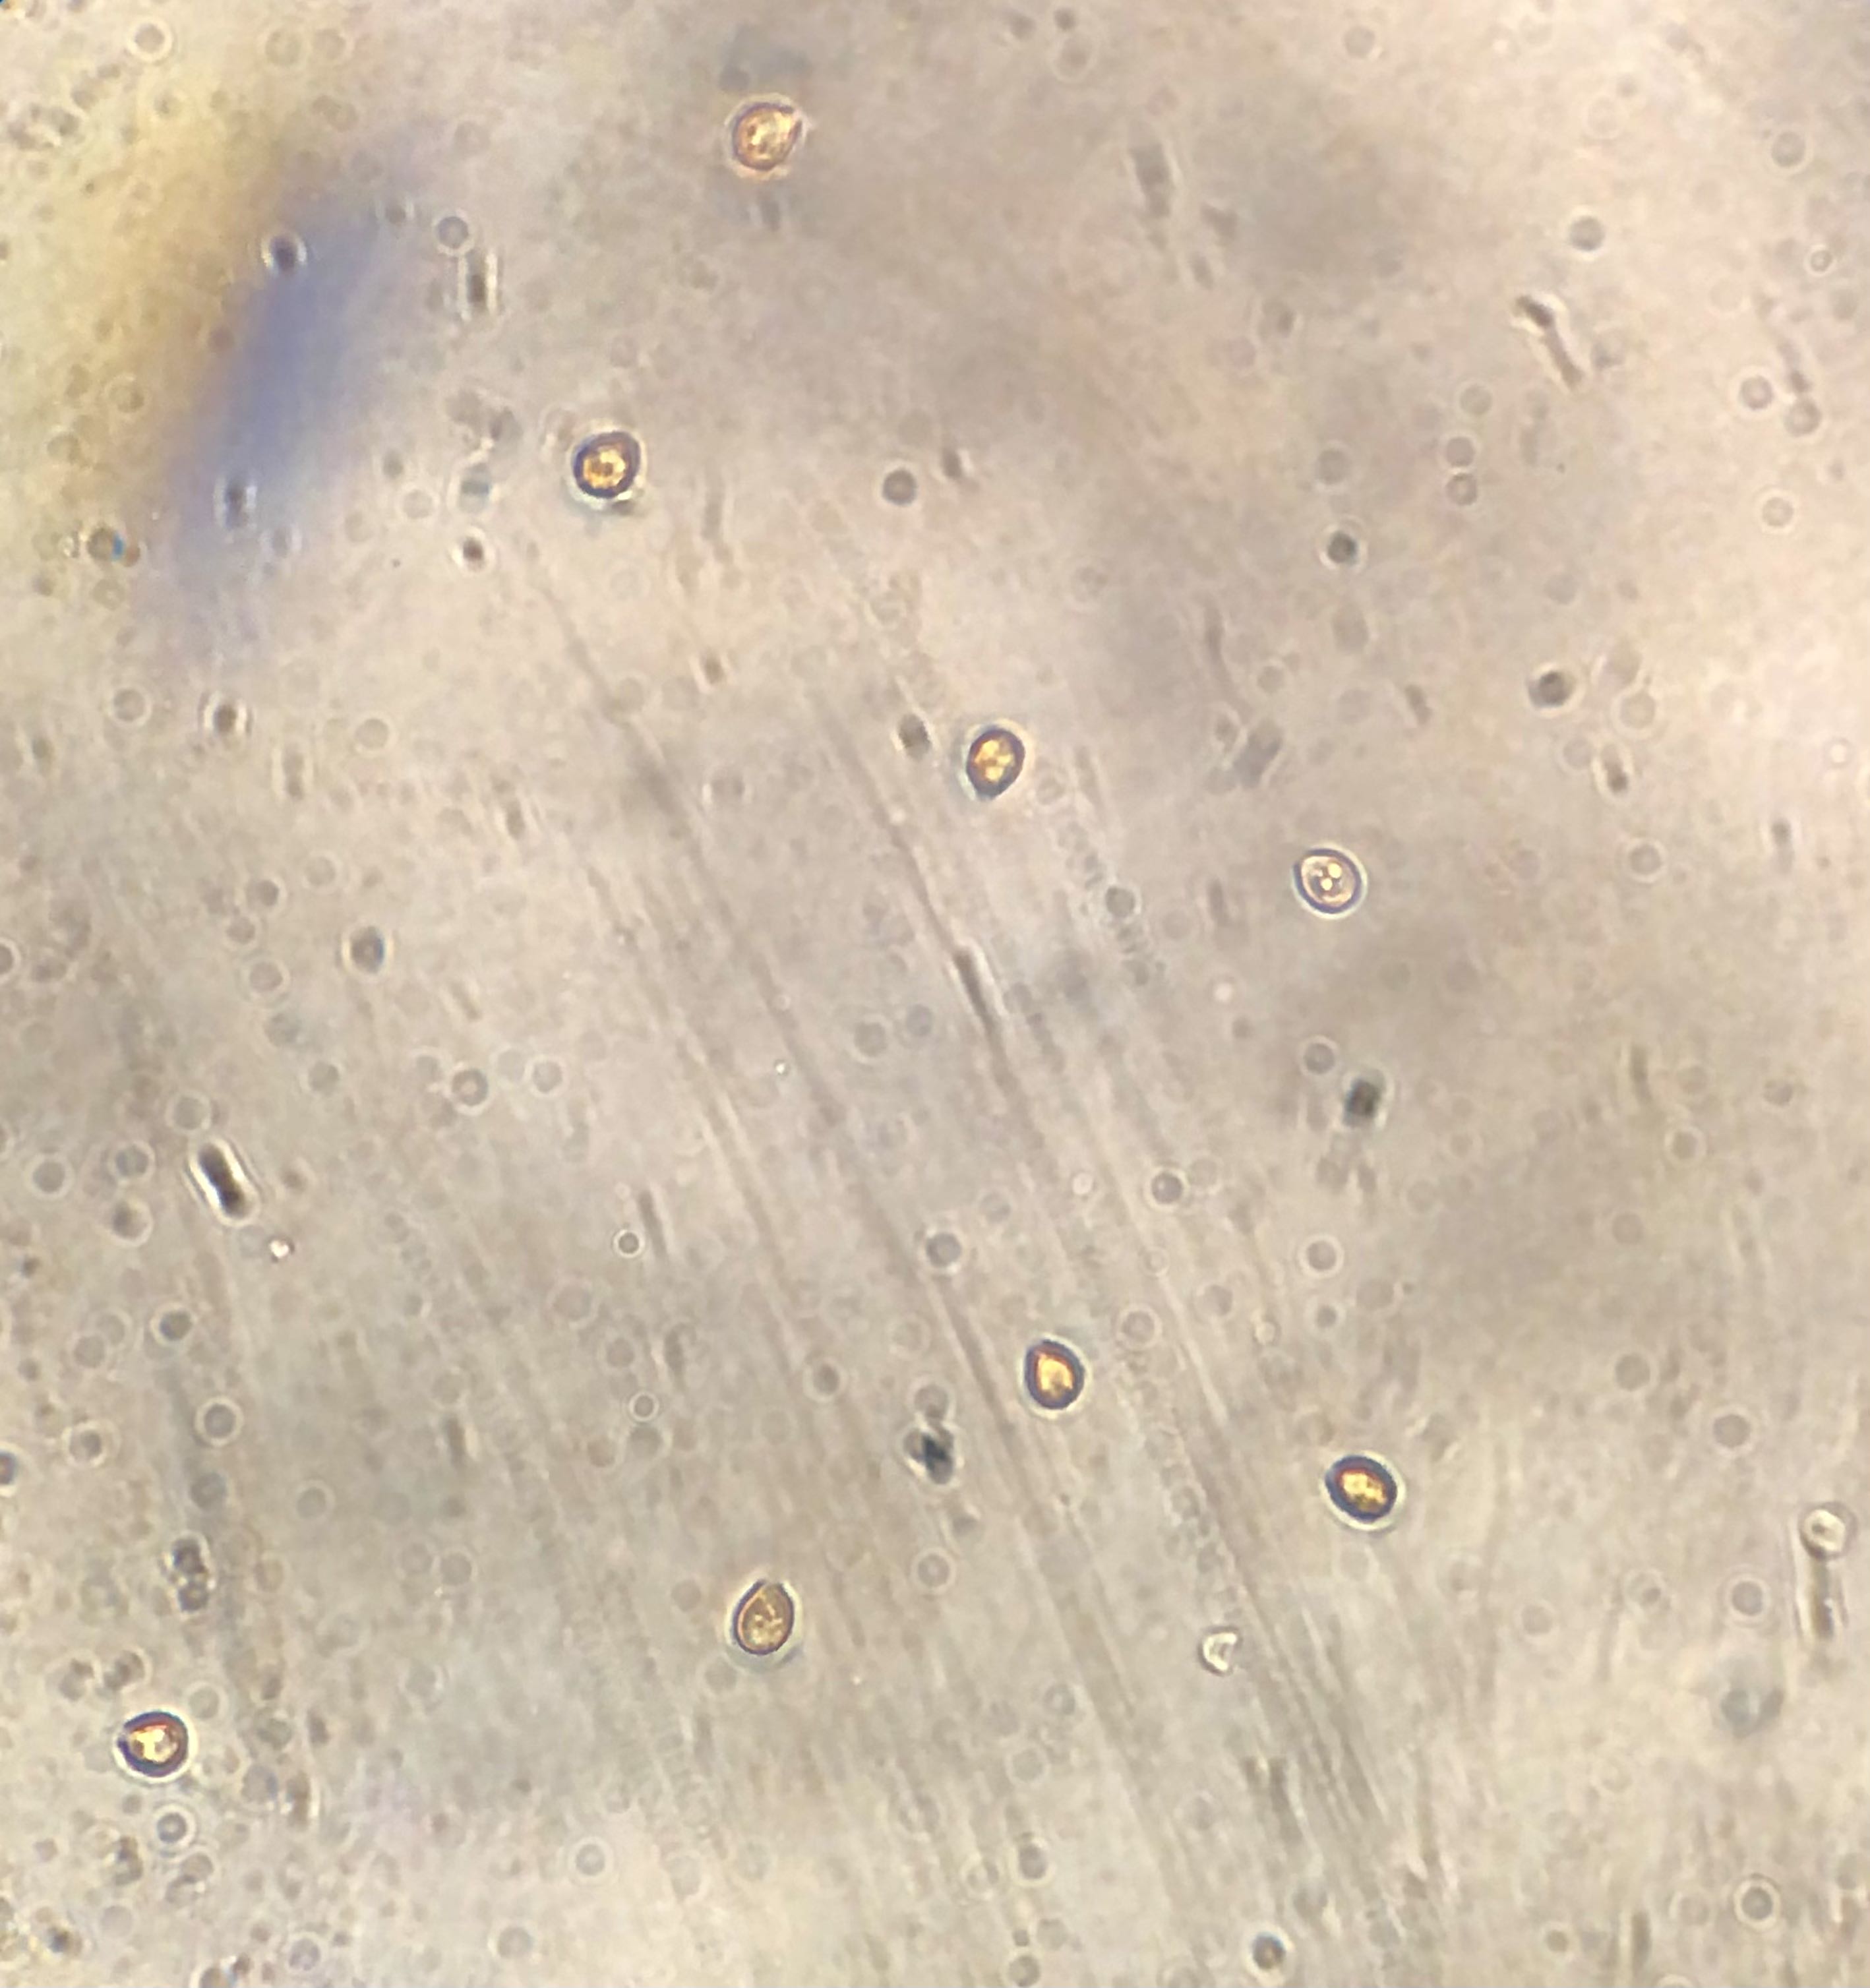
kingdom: Fungi
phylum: Basidiomycota
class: Agaricomycetes
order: Agaricales
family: Cortinariaceae
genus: Cortinarius
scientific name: Cortinarius
